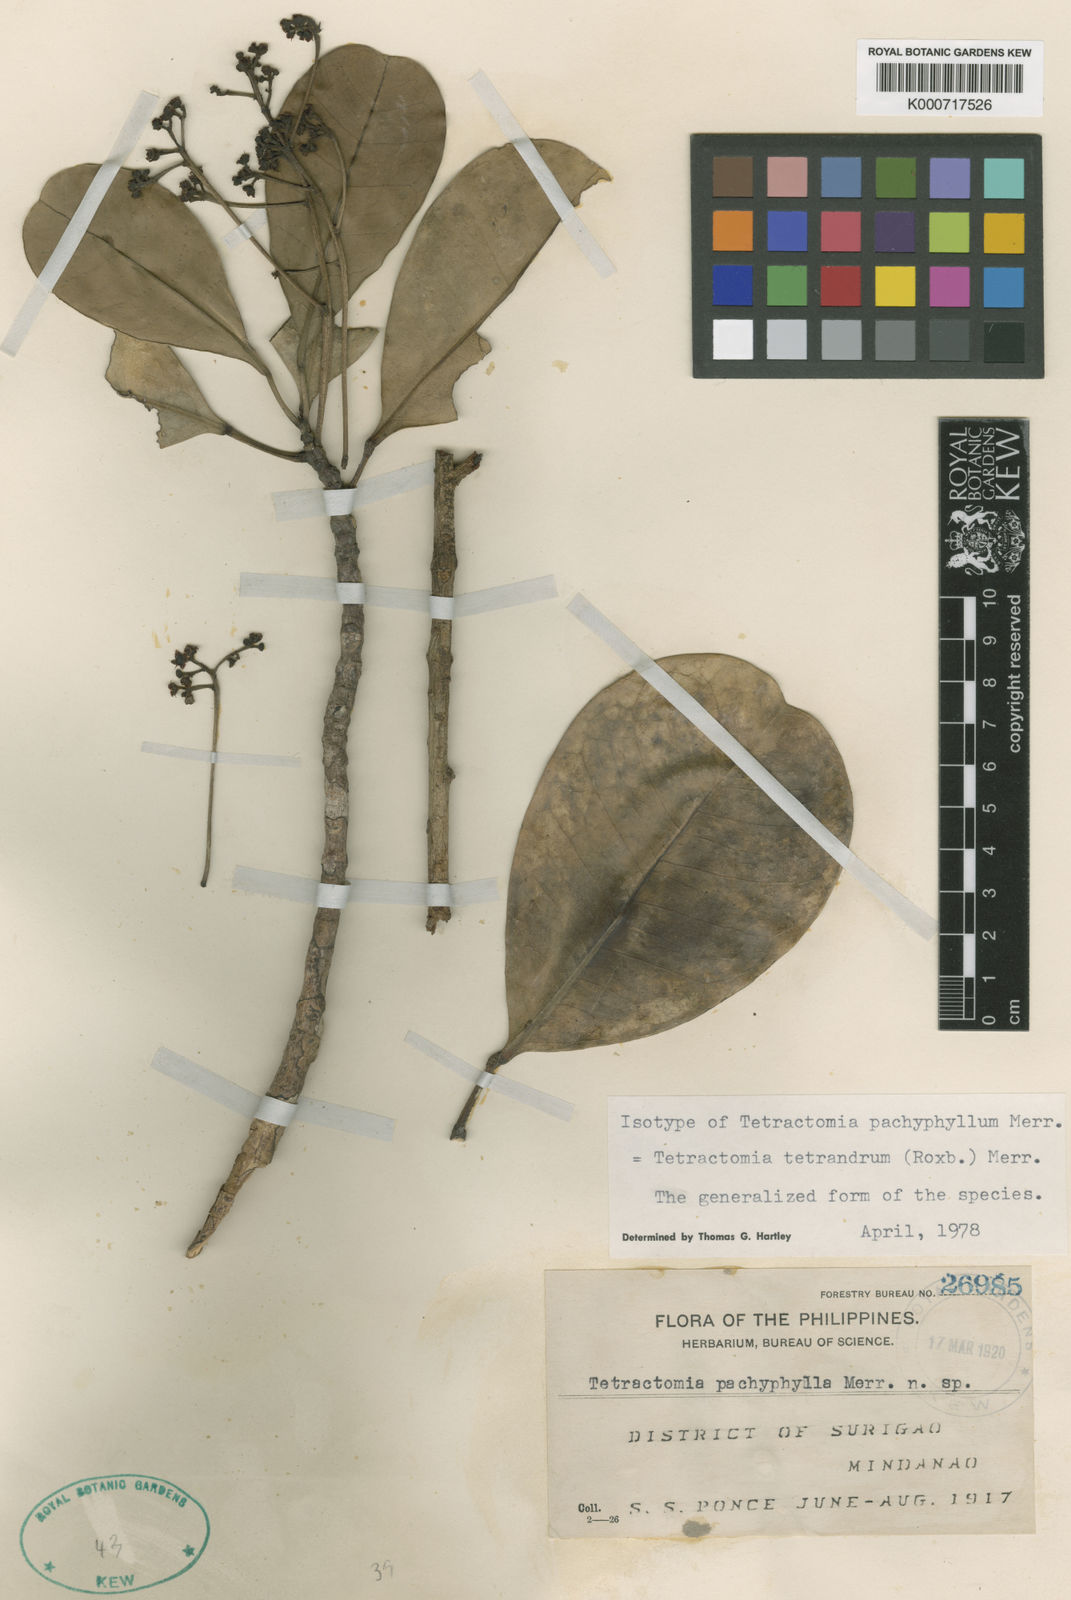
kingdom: Plantae
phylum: Tracheophyta
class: Magnoliopsida
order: Sapindales
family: Rutaceae
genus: Tetractomia
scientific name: Tetractomia tetrandra
